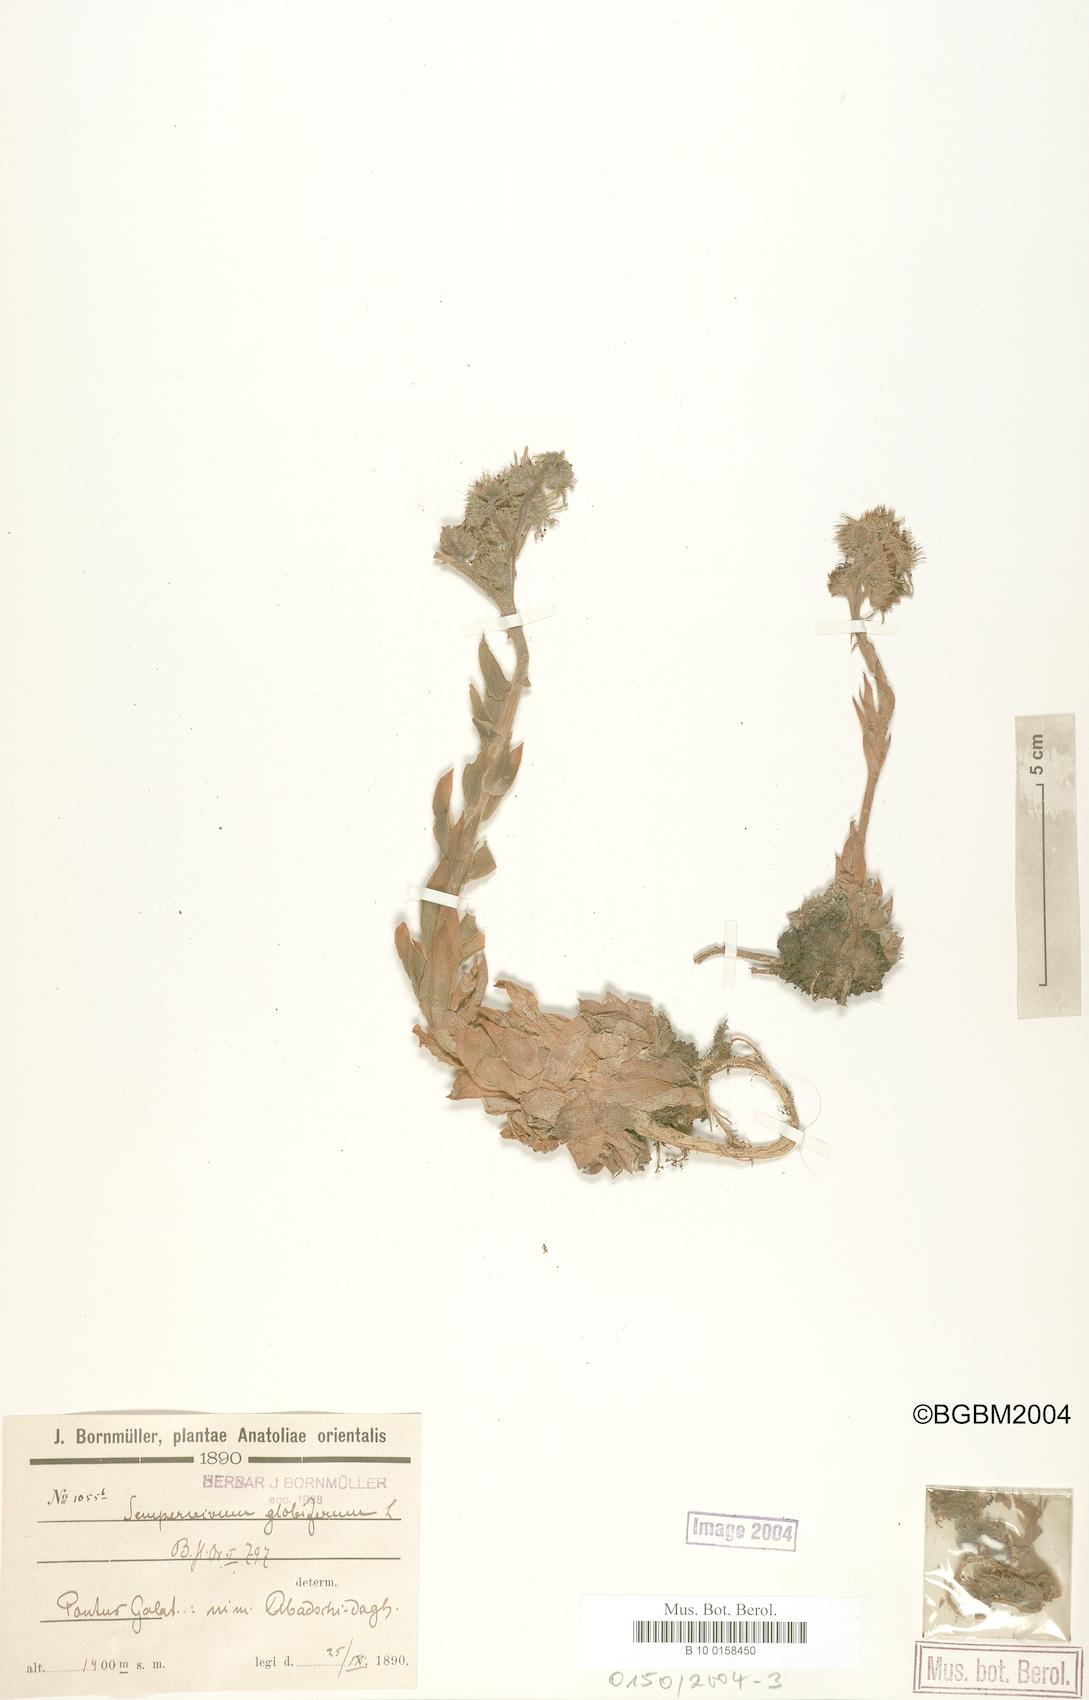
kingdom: Plantae
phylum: Tracheophyta
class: Magnoliopsida
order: Saxifragales
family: Crassulaceae
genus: Sempervivum
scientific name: Sempervivum globiferum
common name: Rolling hen-and-chicks
